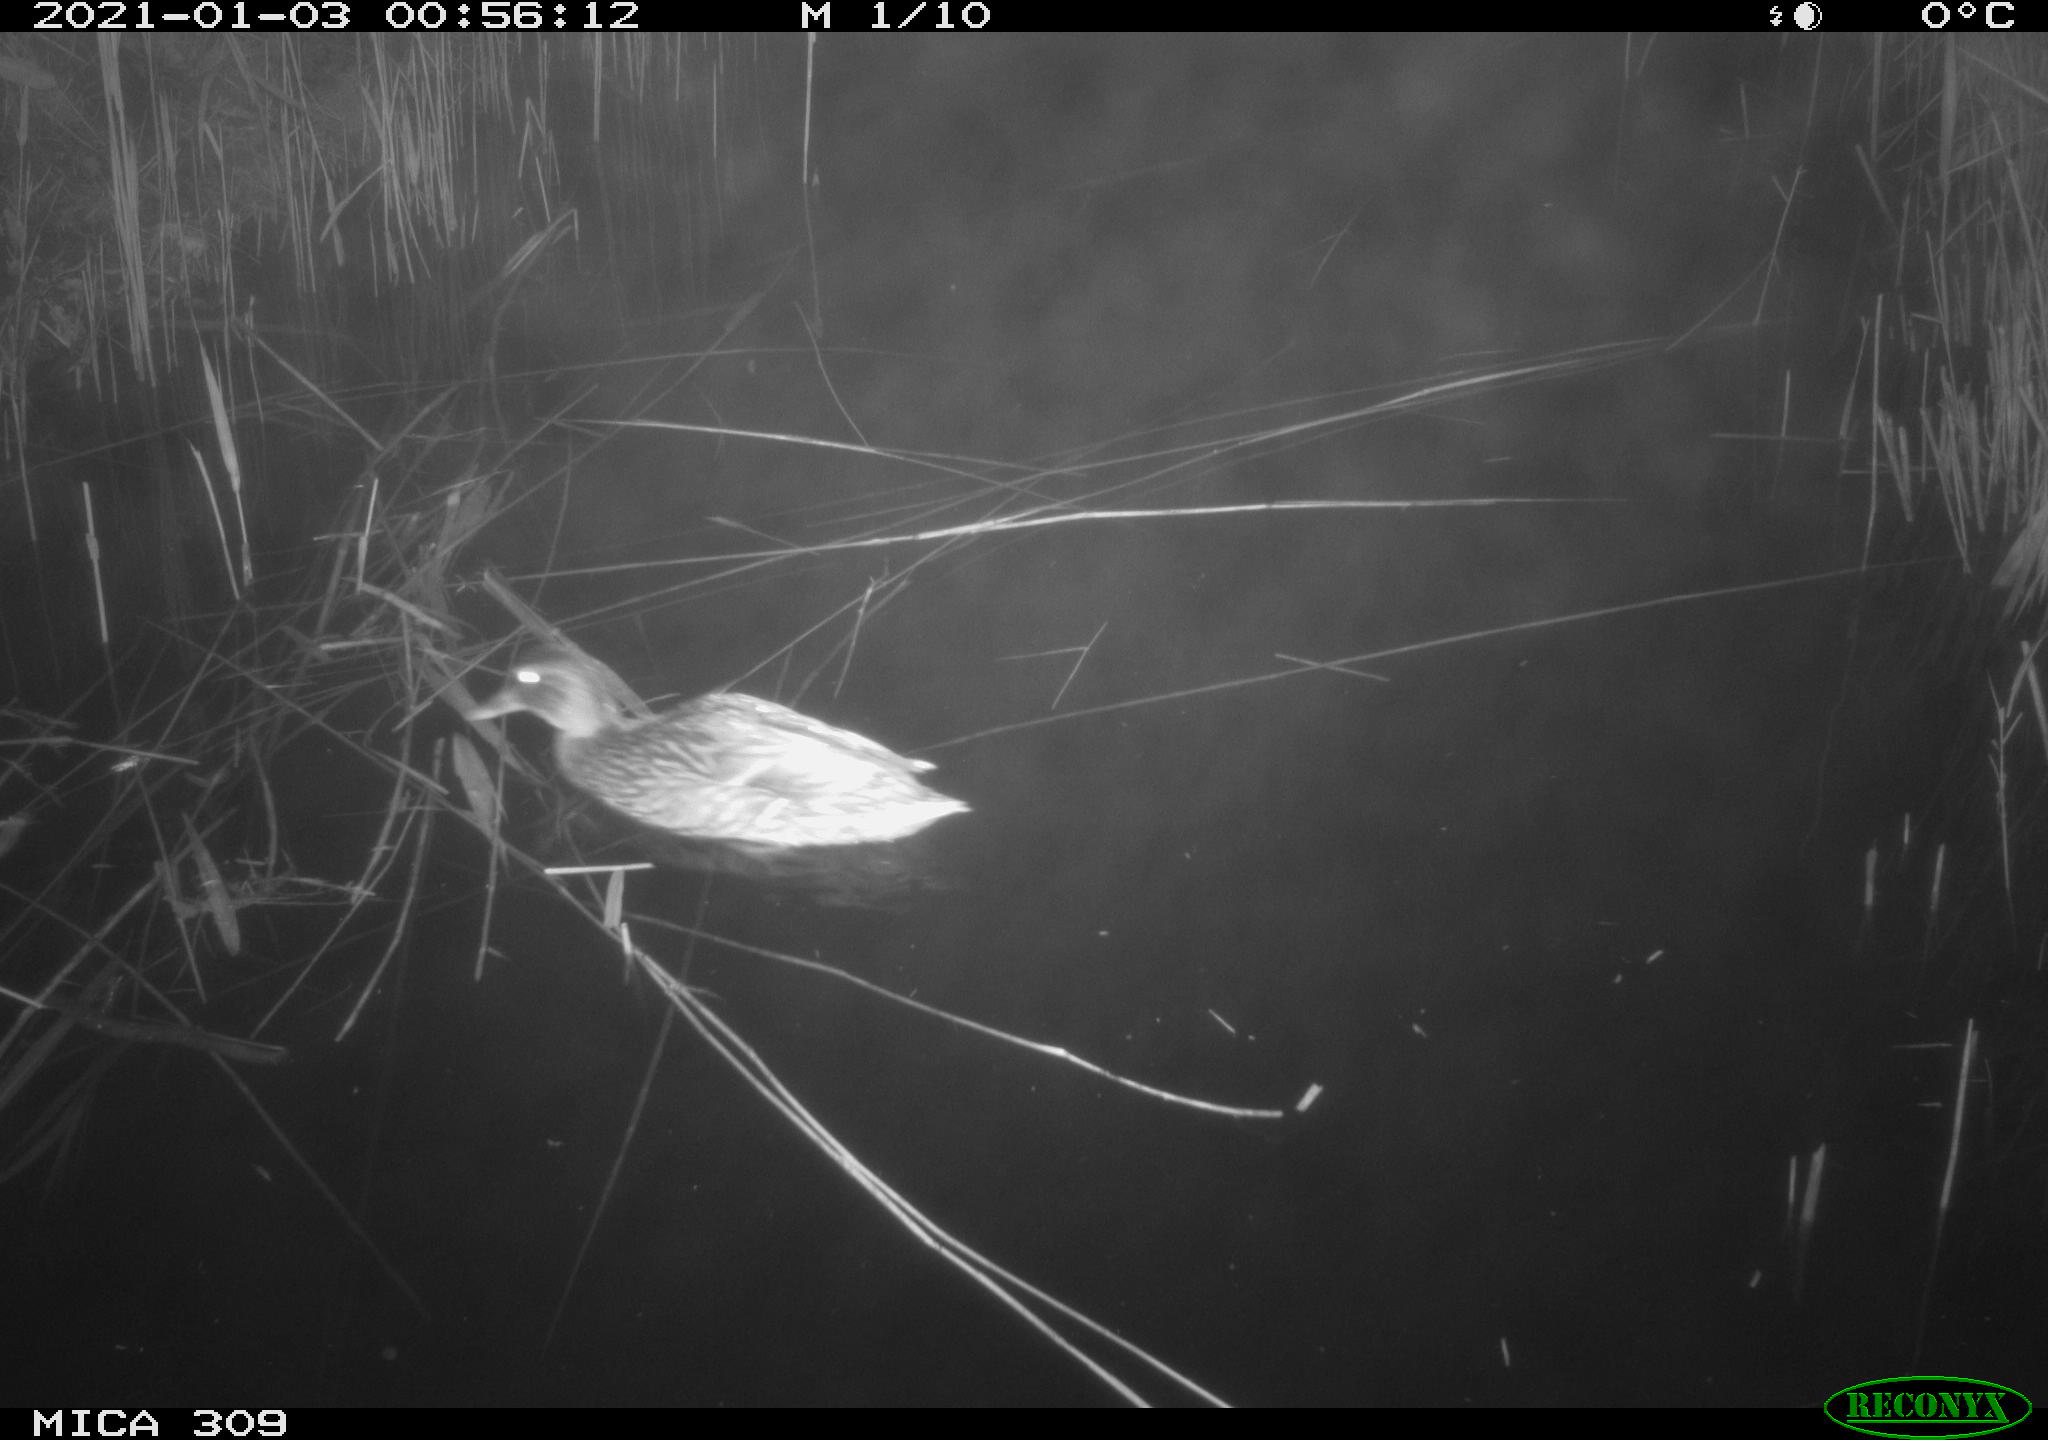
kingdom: Animalia
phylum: Chordata
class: Aves
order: Anseriformes
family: Anatidae
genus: Anas
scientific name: Anas platyrhynchos
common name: Mallard
